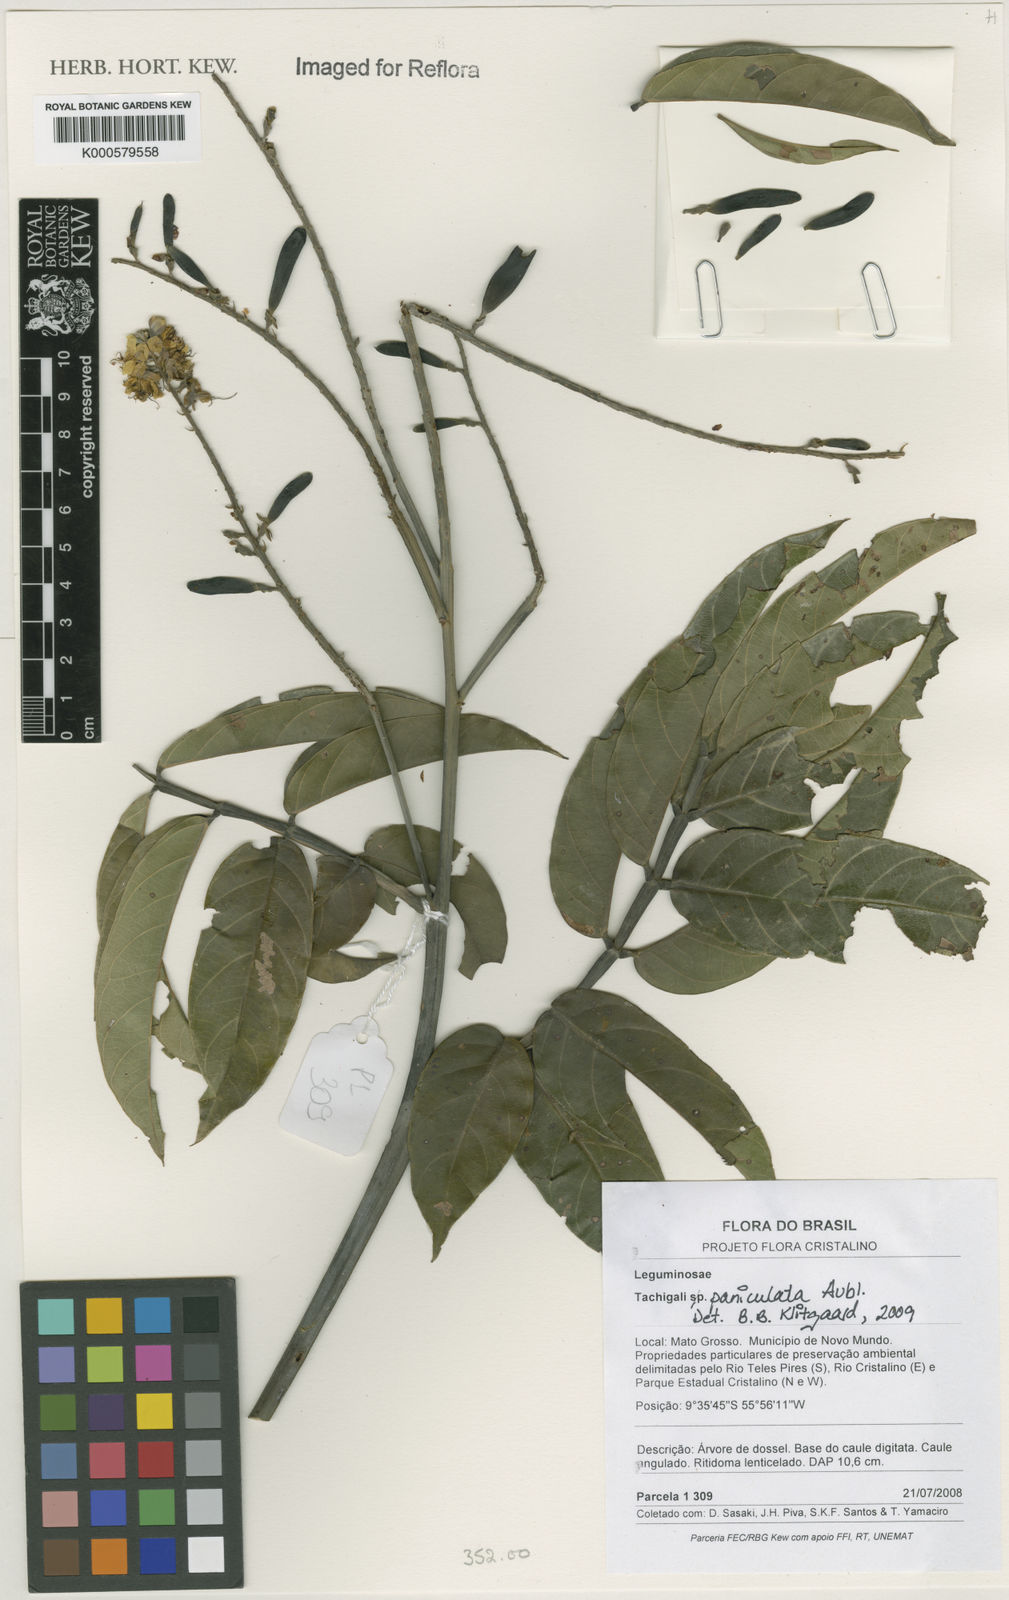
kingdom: Plantae
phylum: Tracheophyta
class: Magnoliopsida
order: Fabales
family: Fabaceae
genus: Tachigali
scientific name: Tachigali paniculata
